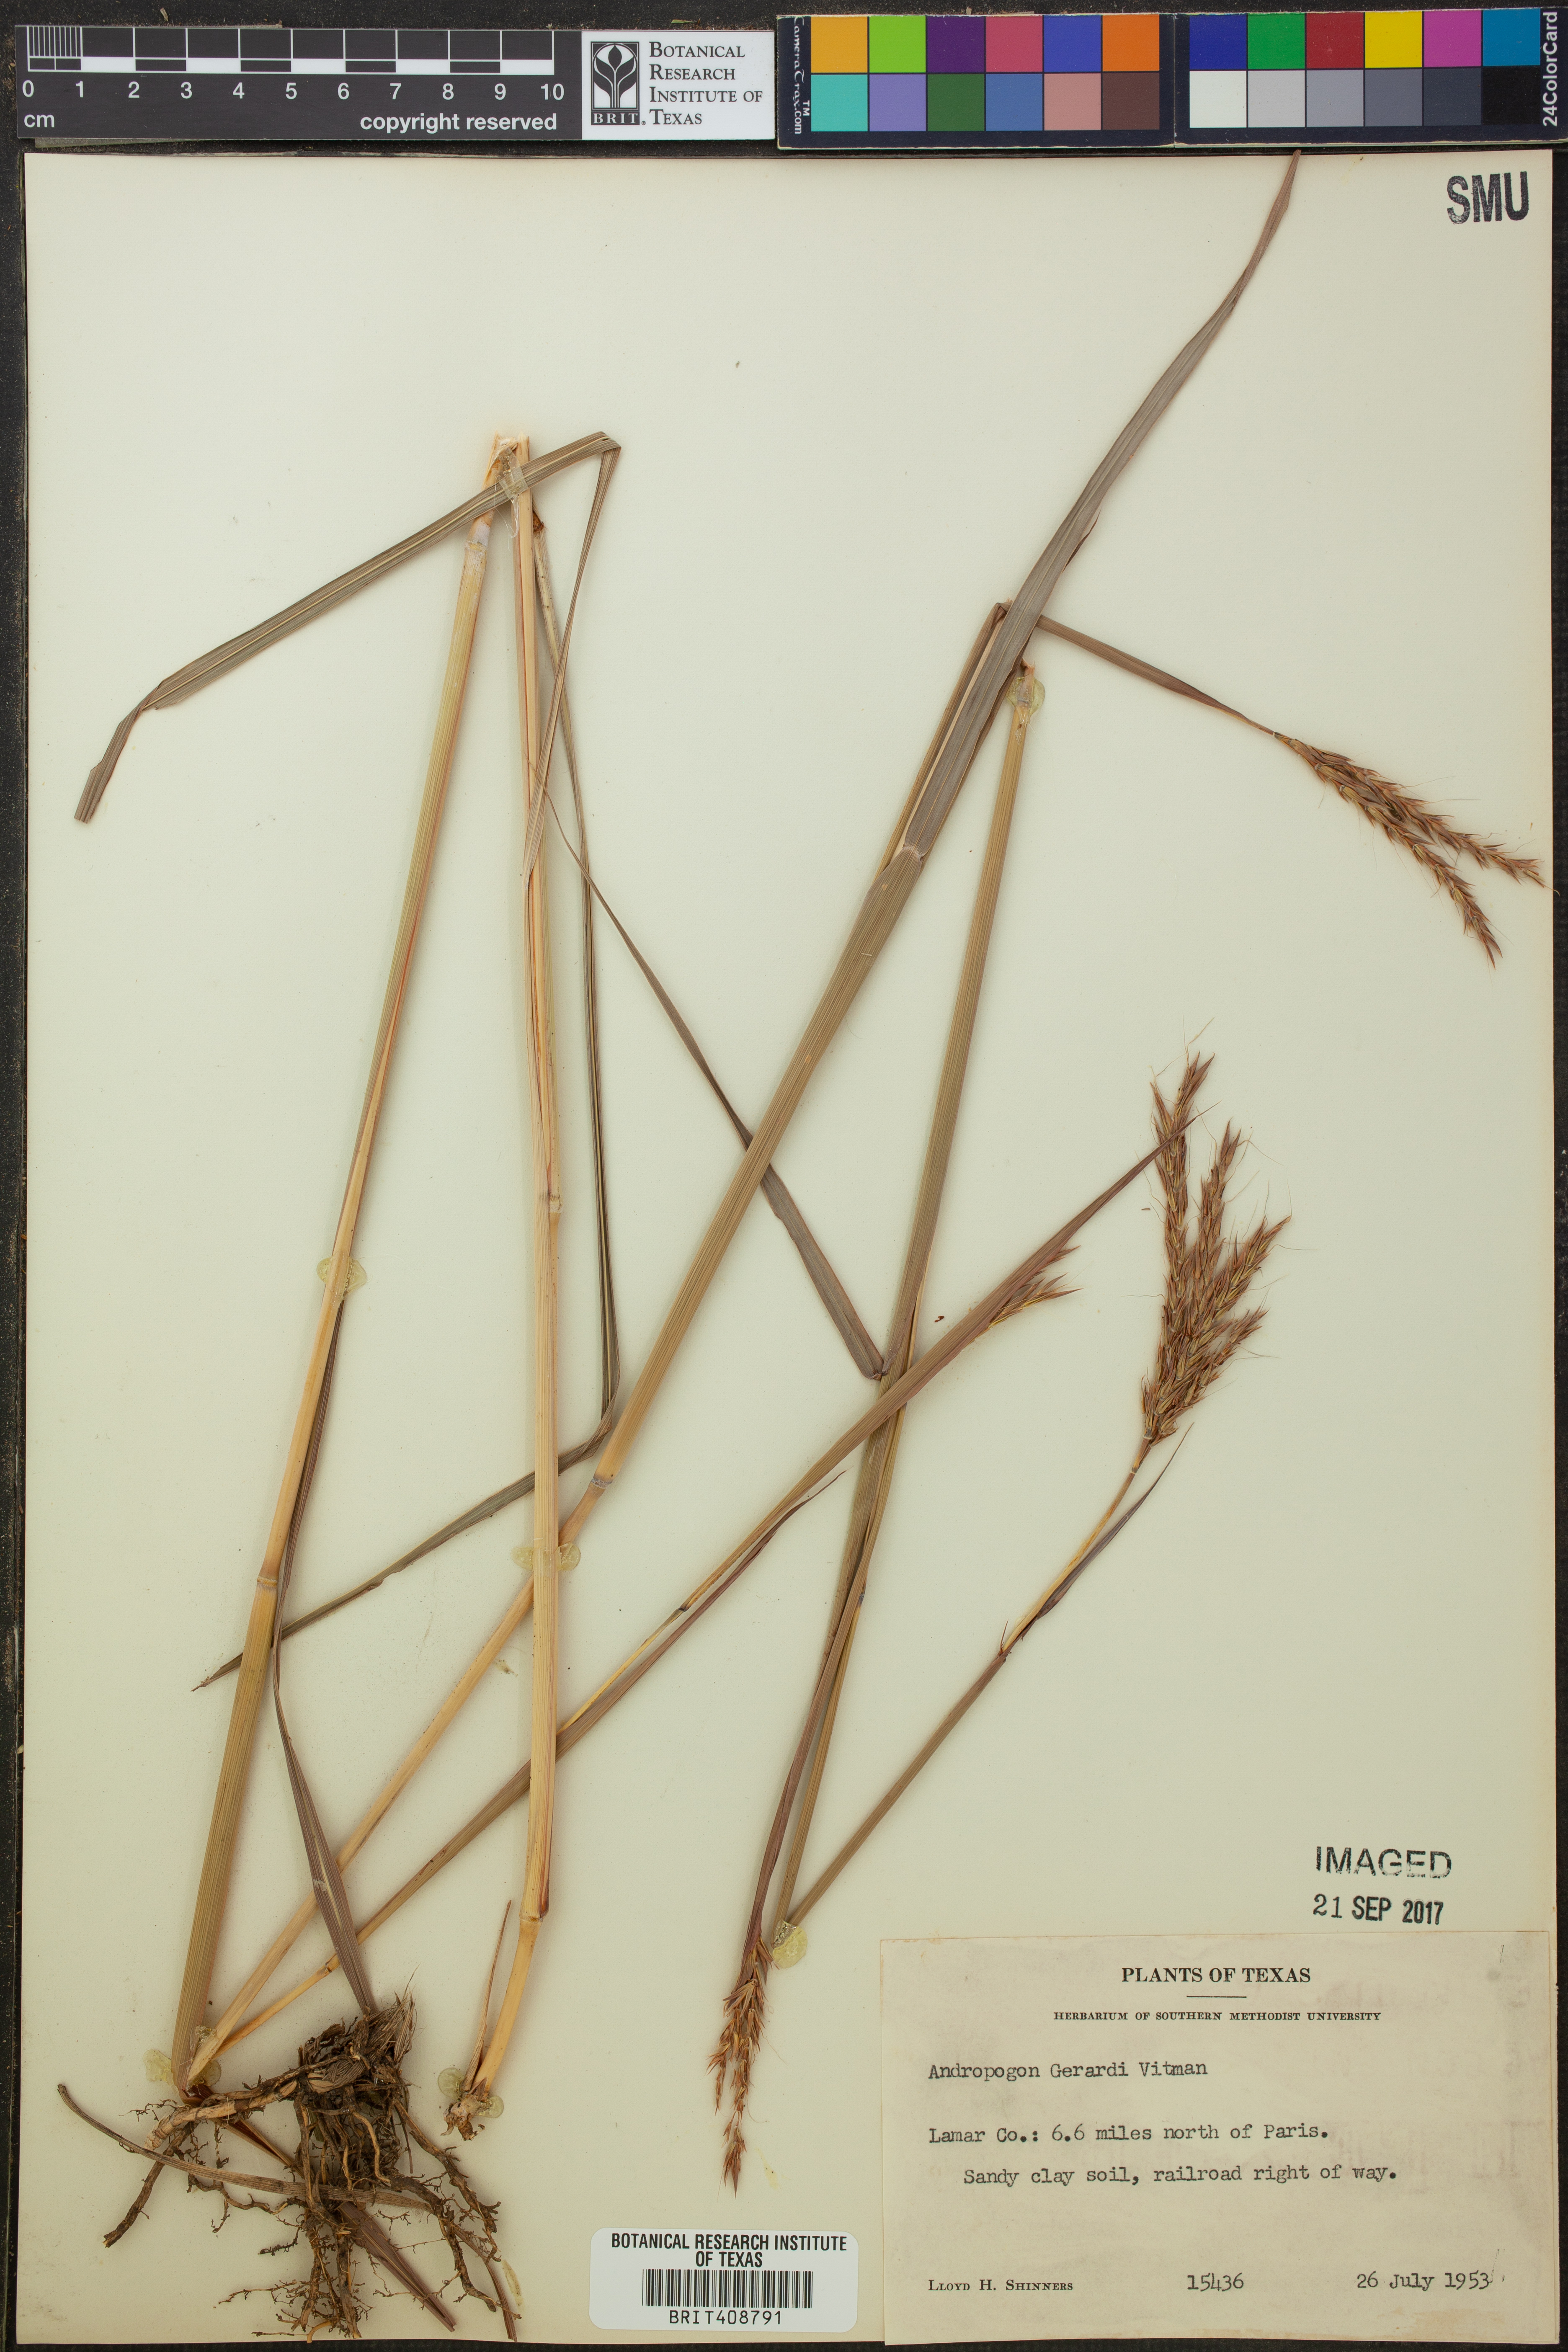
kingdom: Plantae
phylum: Tracheophyta
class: Liliopsida
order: Poales
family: Poaceae
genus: Andropogon
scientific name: Andropogon gerardi
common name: Big bluestem
